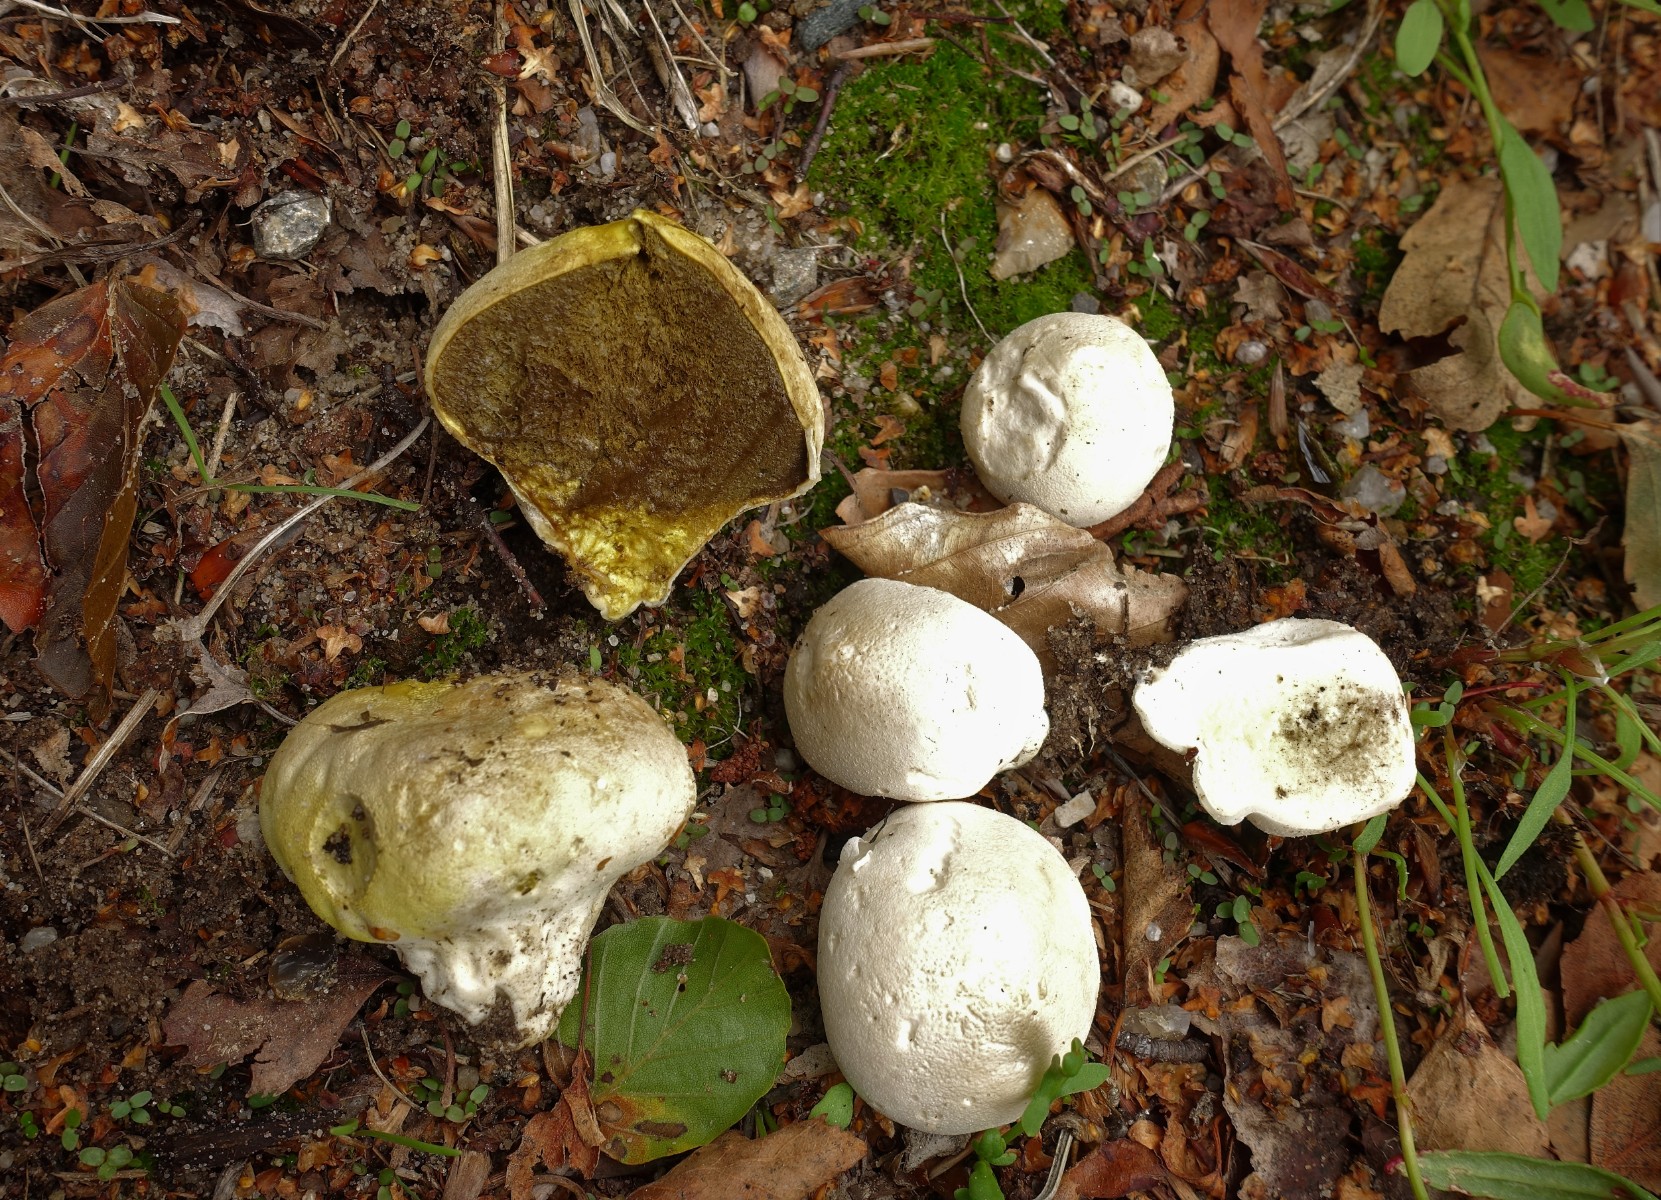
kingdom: Fungi
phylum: Basidiomycota
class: Agaricomycetes
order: Agaricales
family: Lycoperdaceae
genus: Lycoperdon
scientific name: Lycoperdon pratense
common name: flad støvbold
